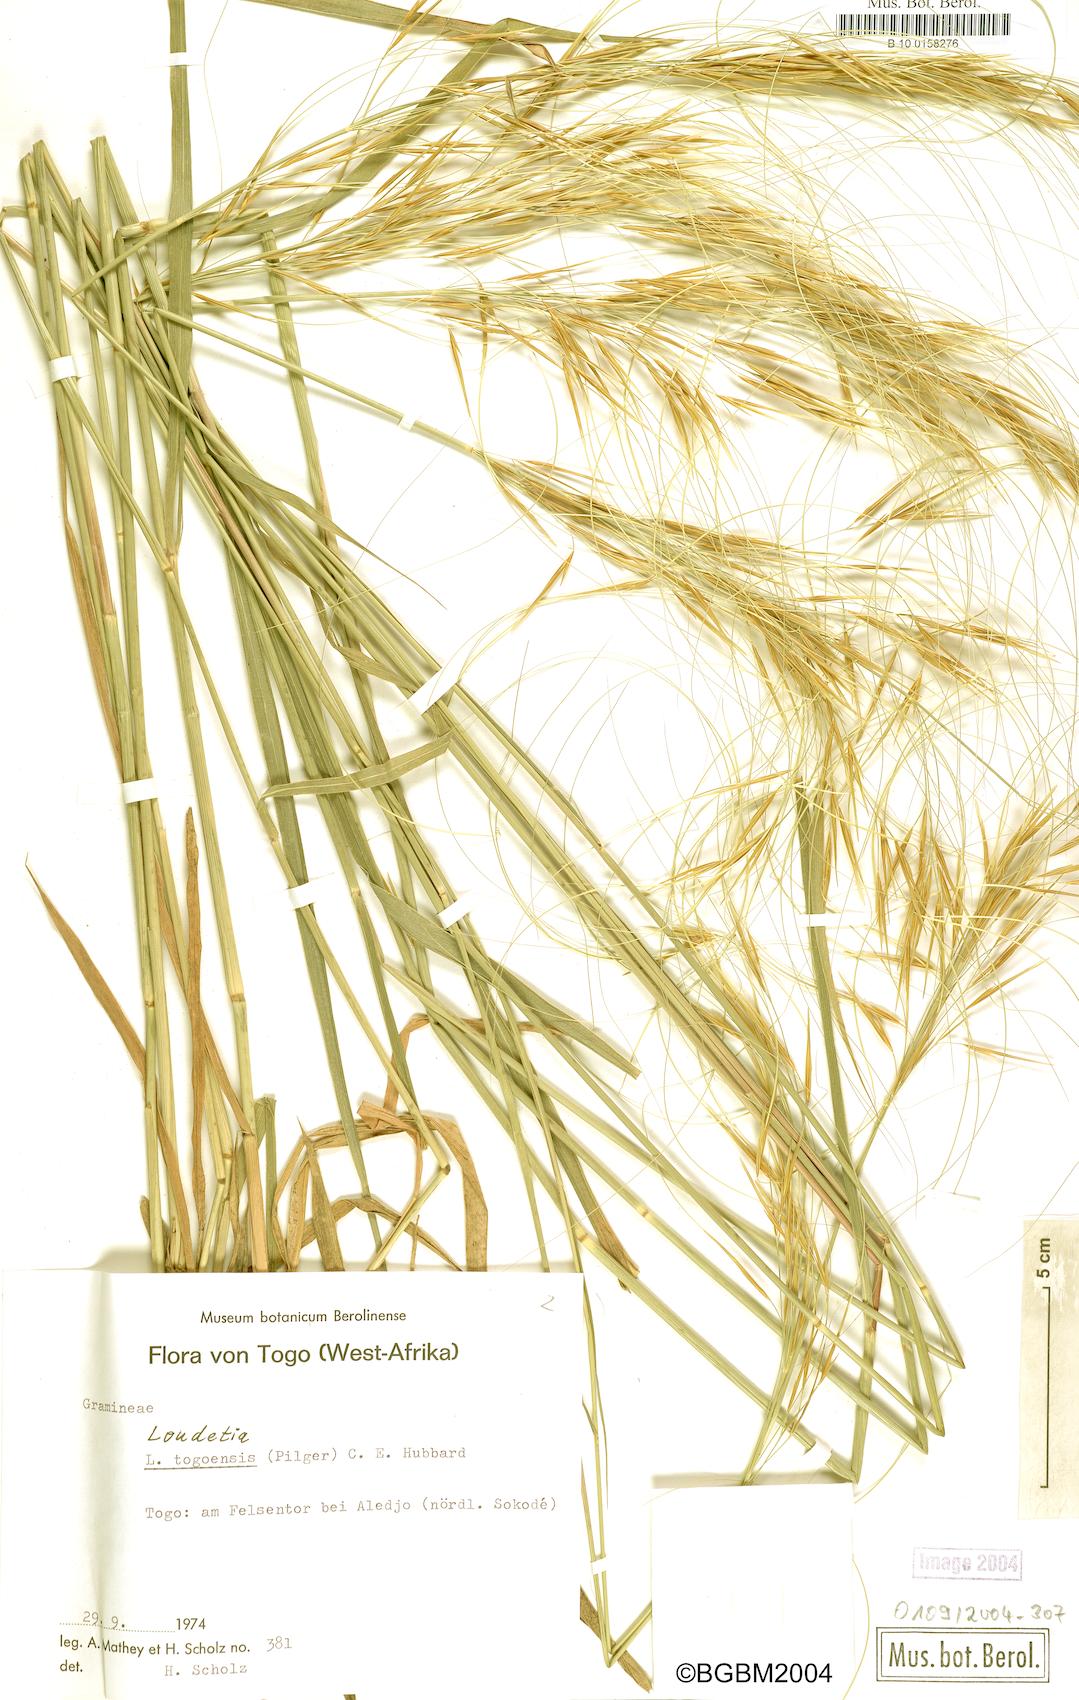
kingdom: Plantae
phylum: Tracheophyta
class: Liliopsida
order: Poales
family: Poaceae
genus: Loudetia
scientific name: Loudetia togoensis
